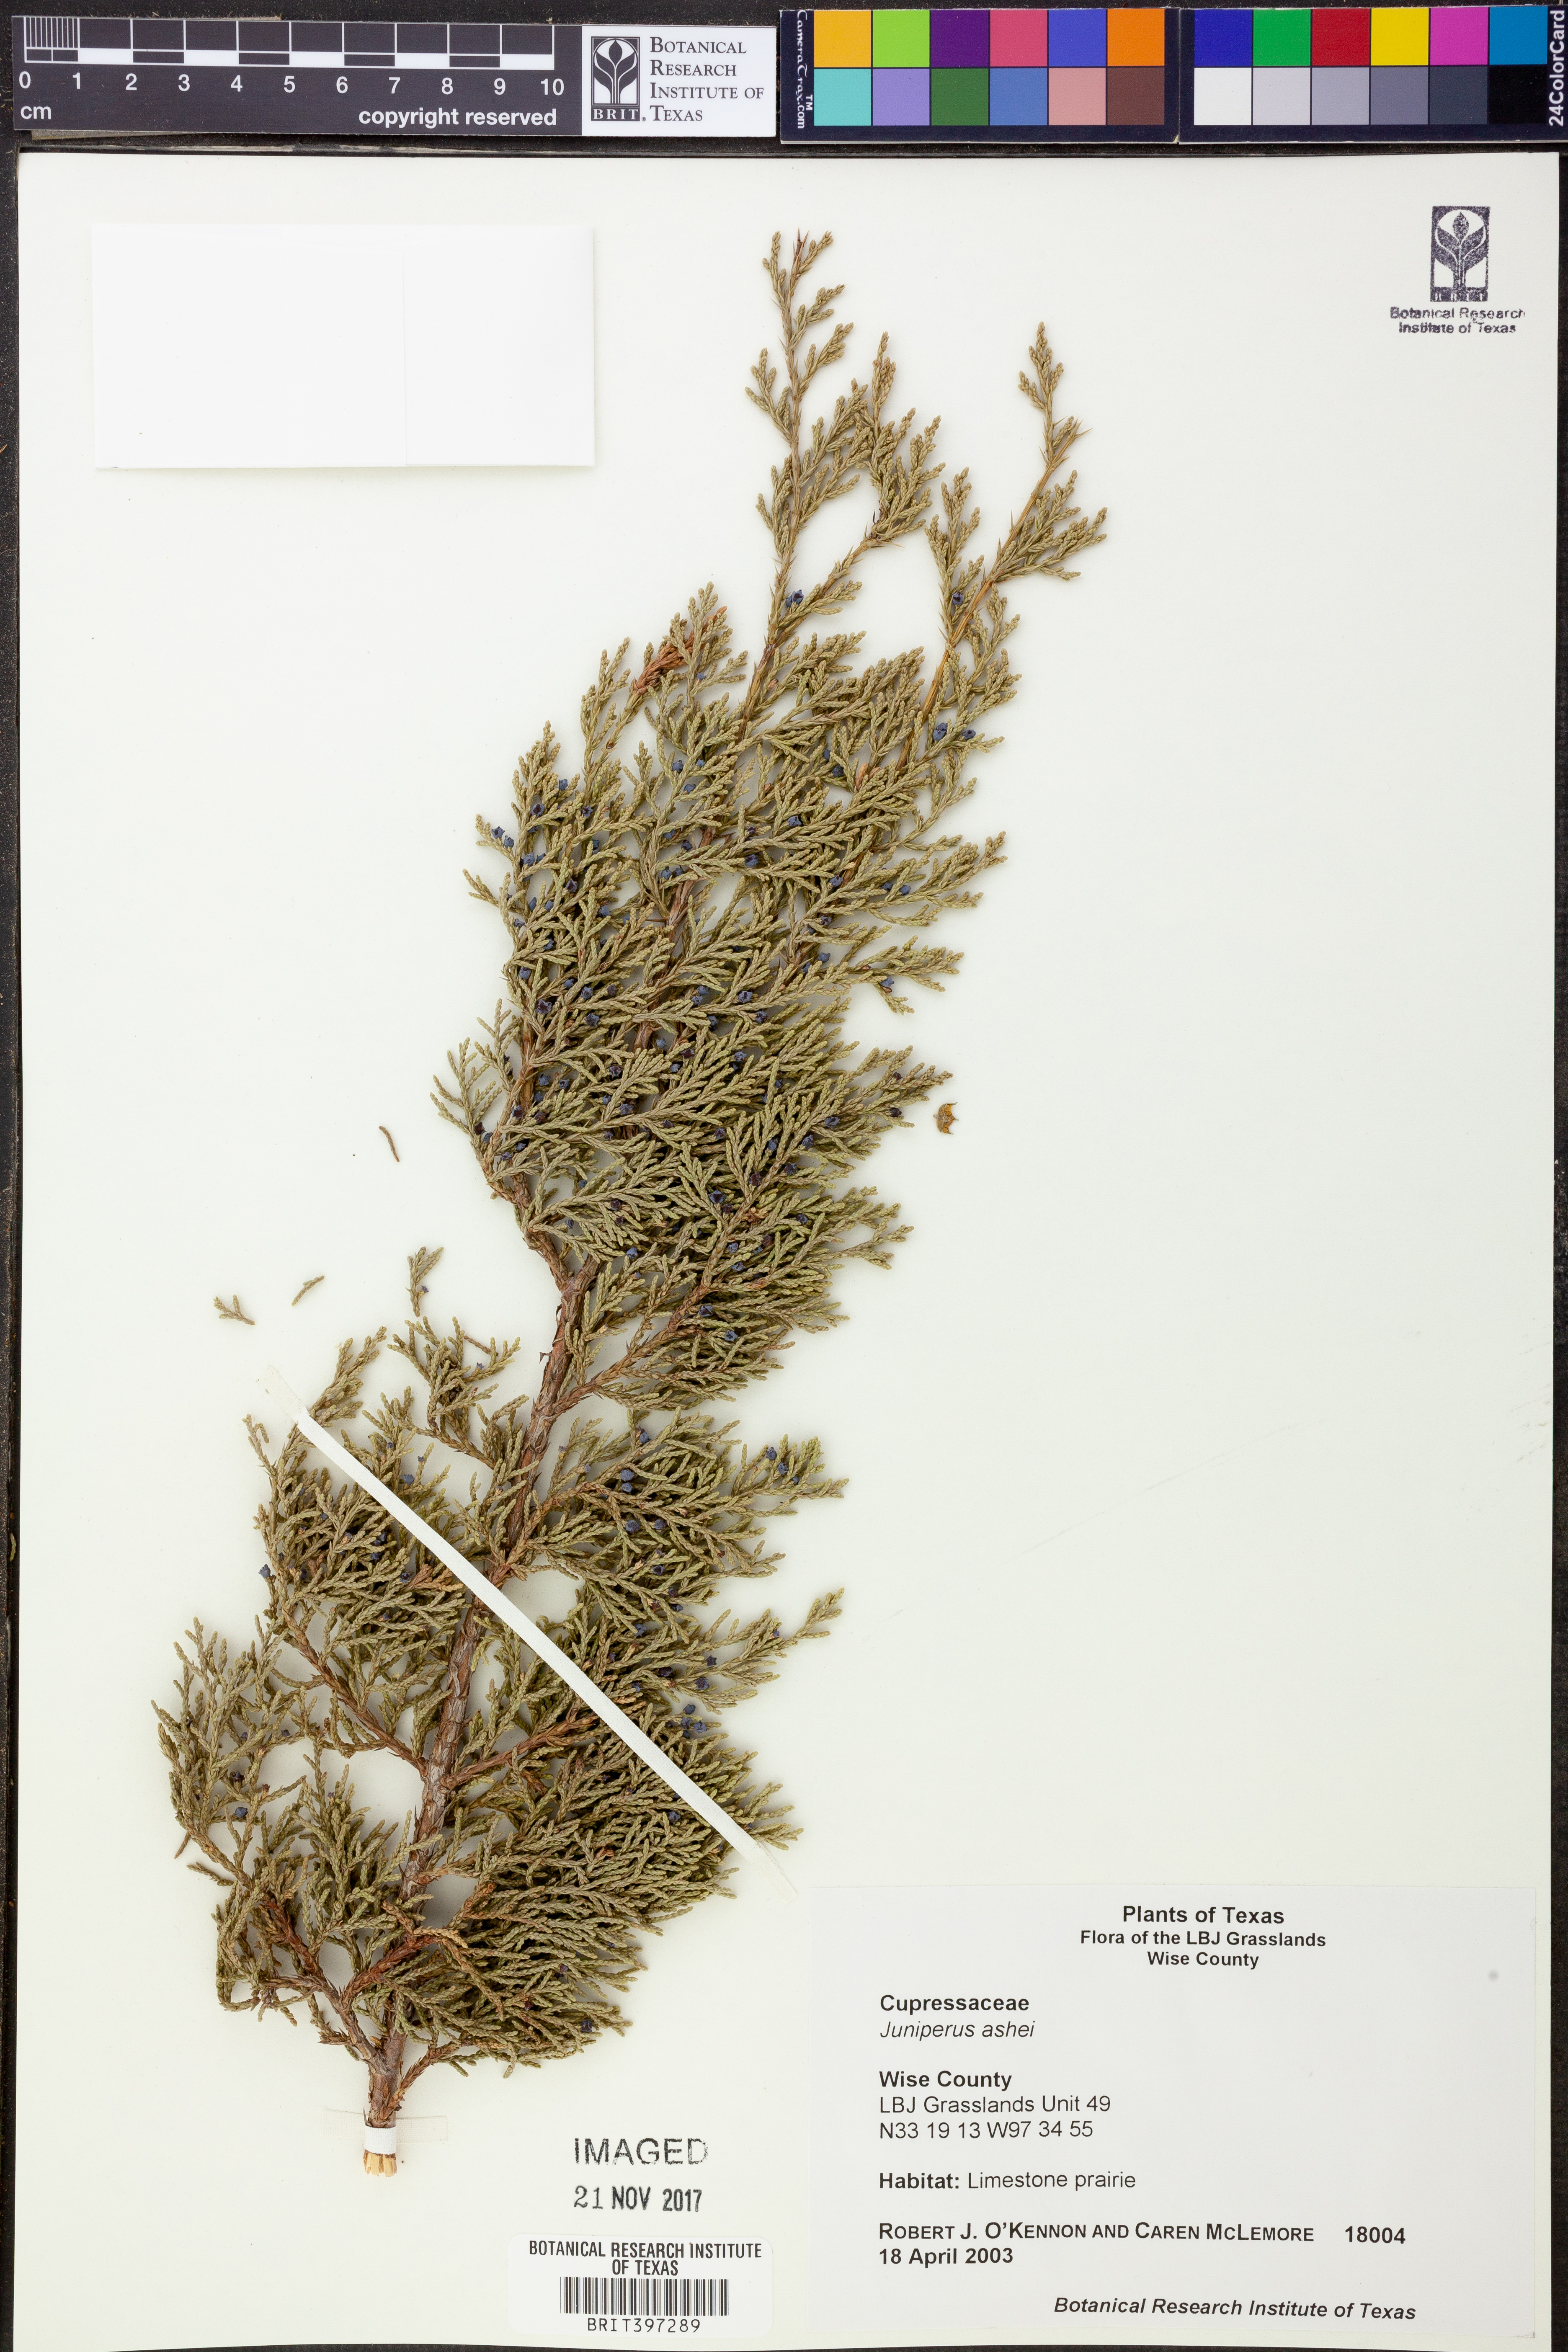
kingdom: Plantae
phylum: Tracheophyta
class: Pinopsida
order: Pinales
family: Cupressaceae
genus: Juniperus
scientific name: Juniperus ashei
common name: Mexican juniper
